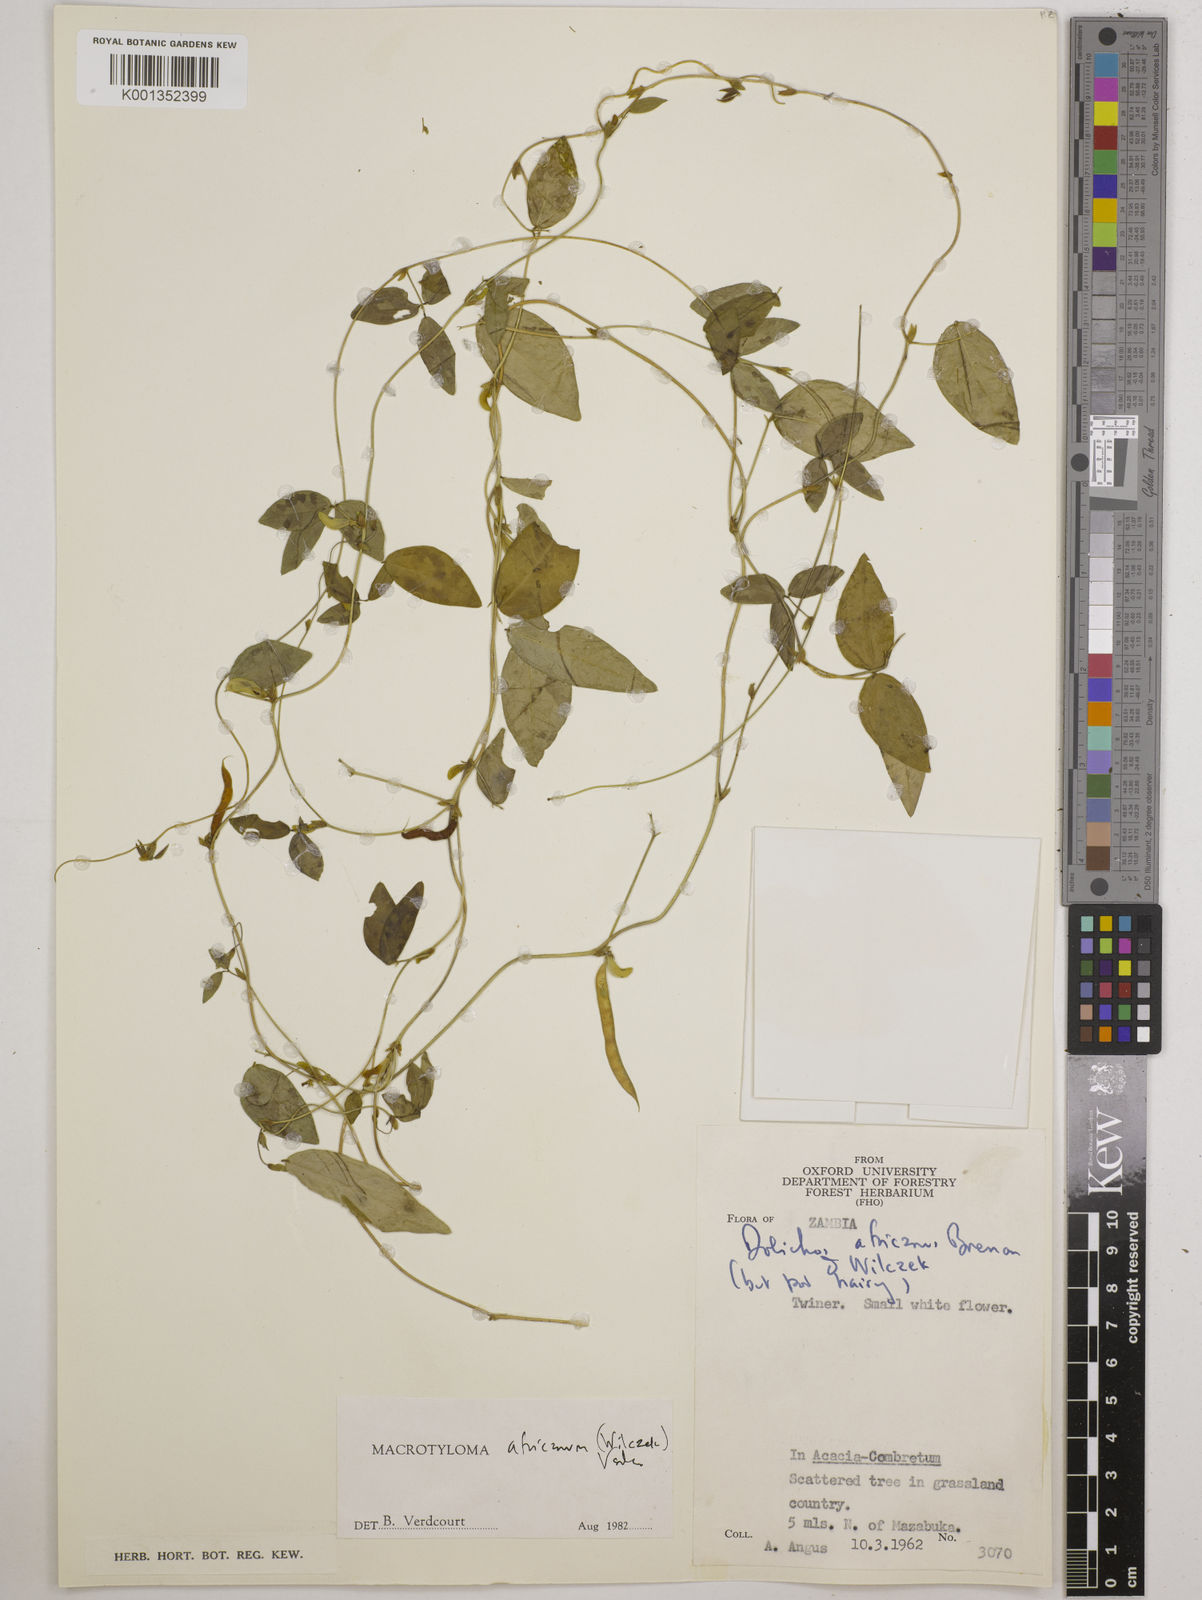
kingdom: Plantae
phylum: Tracheophyta
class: Magnoliopsida
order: Fabales
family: Fabaceae
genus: Macrotyloma
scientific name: Macrotyloma africanum
